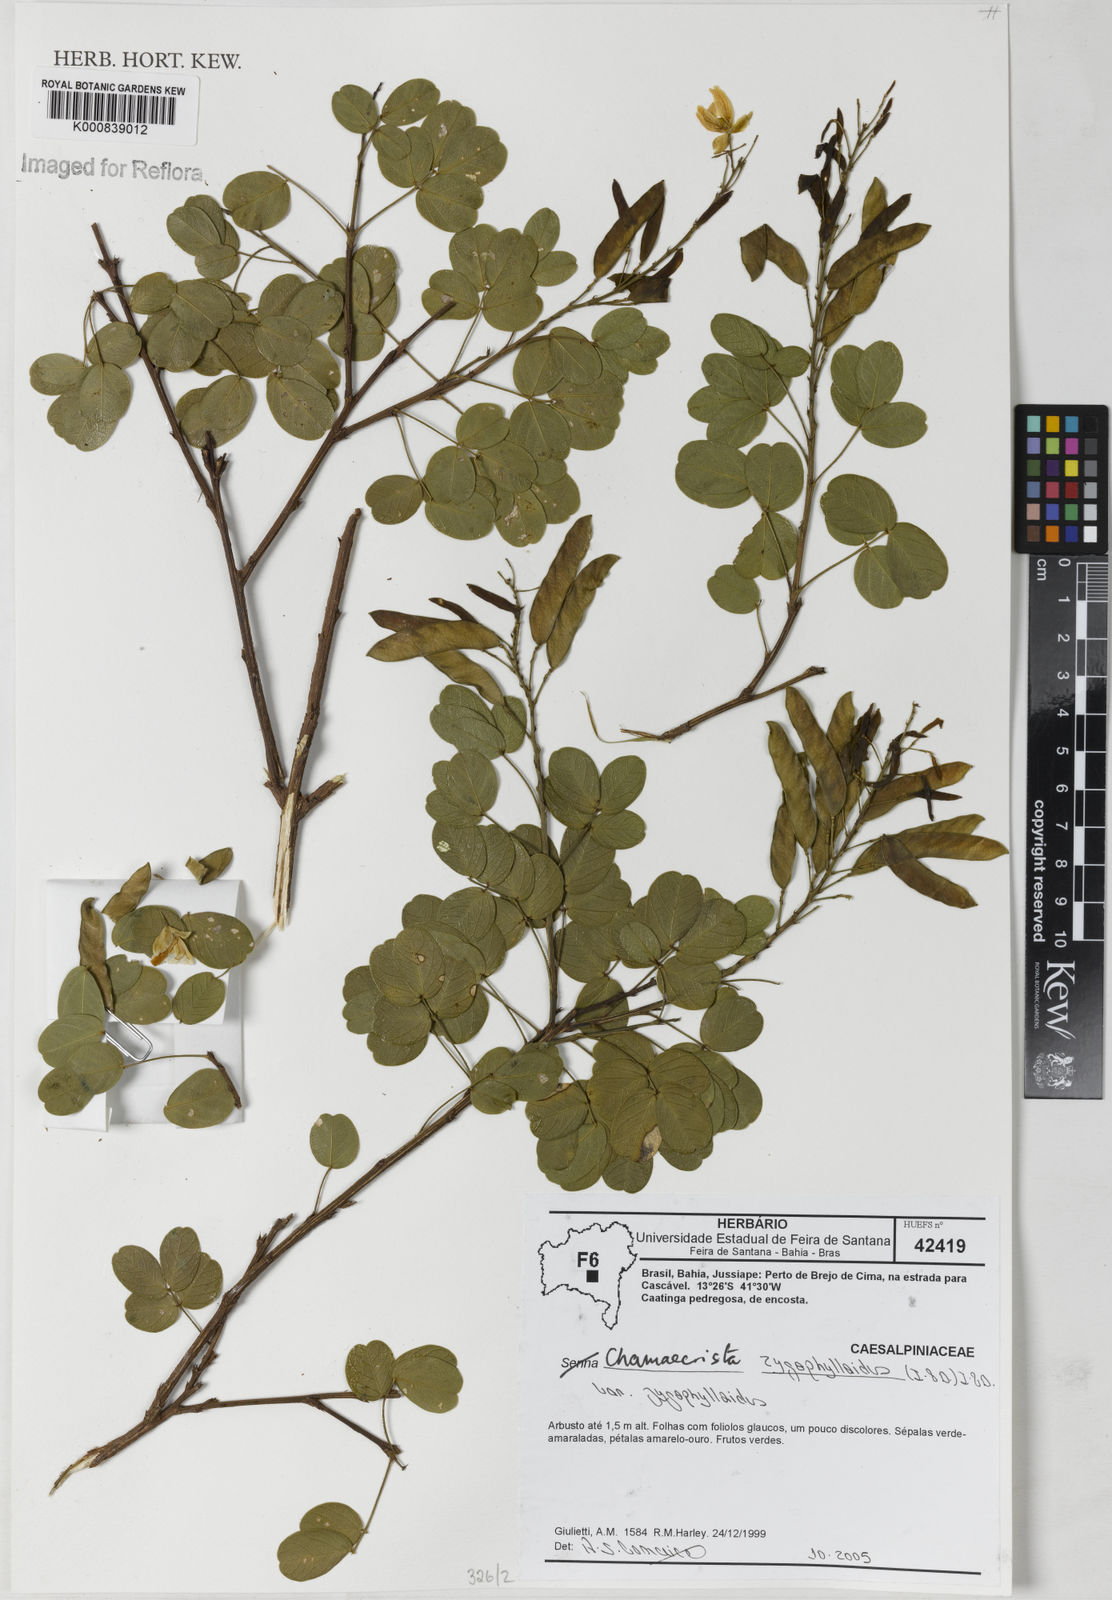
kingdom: Plantae
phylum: Tracheophyta
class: Magnoliopsida
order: Fabales
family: Fabaceae
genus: Chamaecrista
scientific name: Chamaecrista zygophylloides
